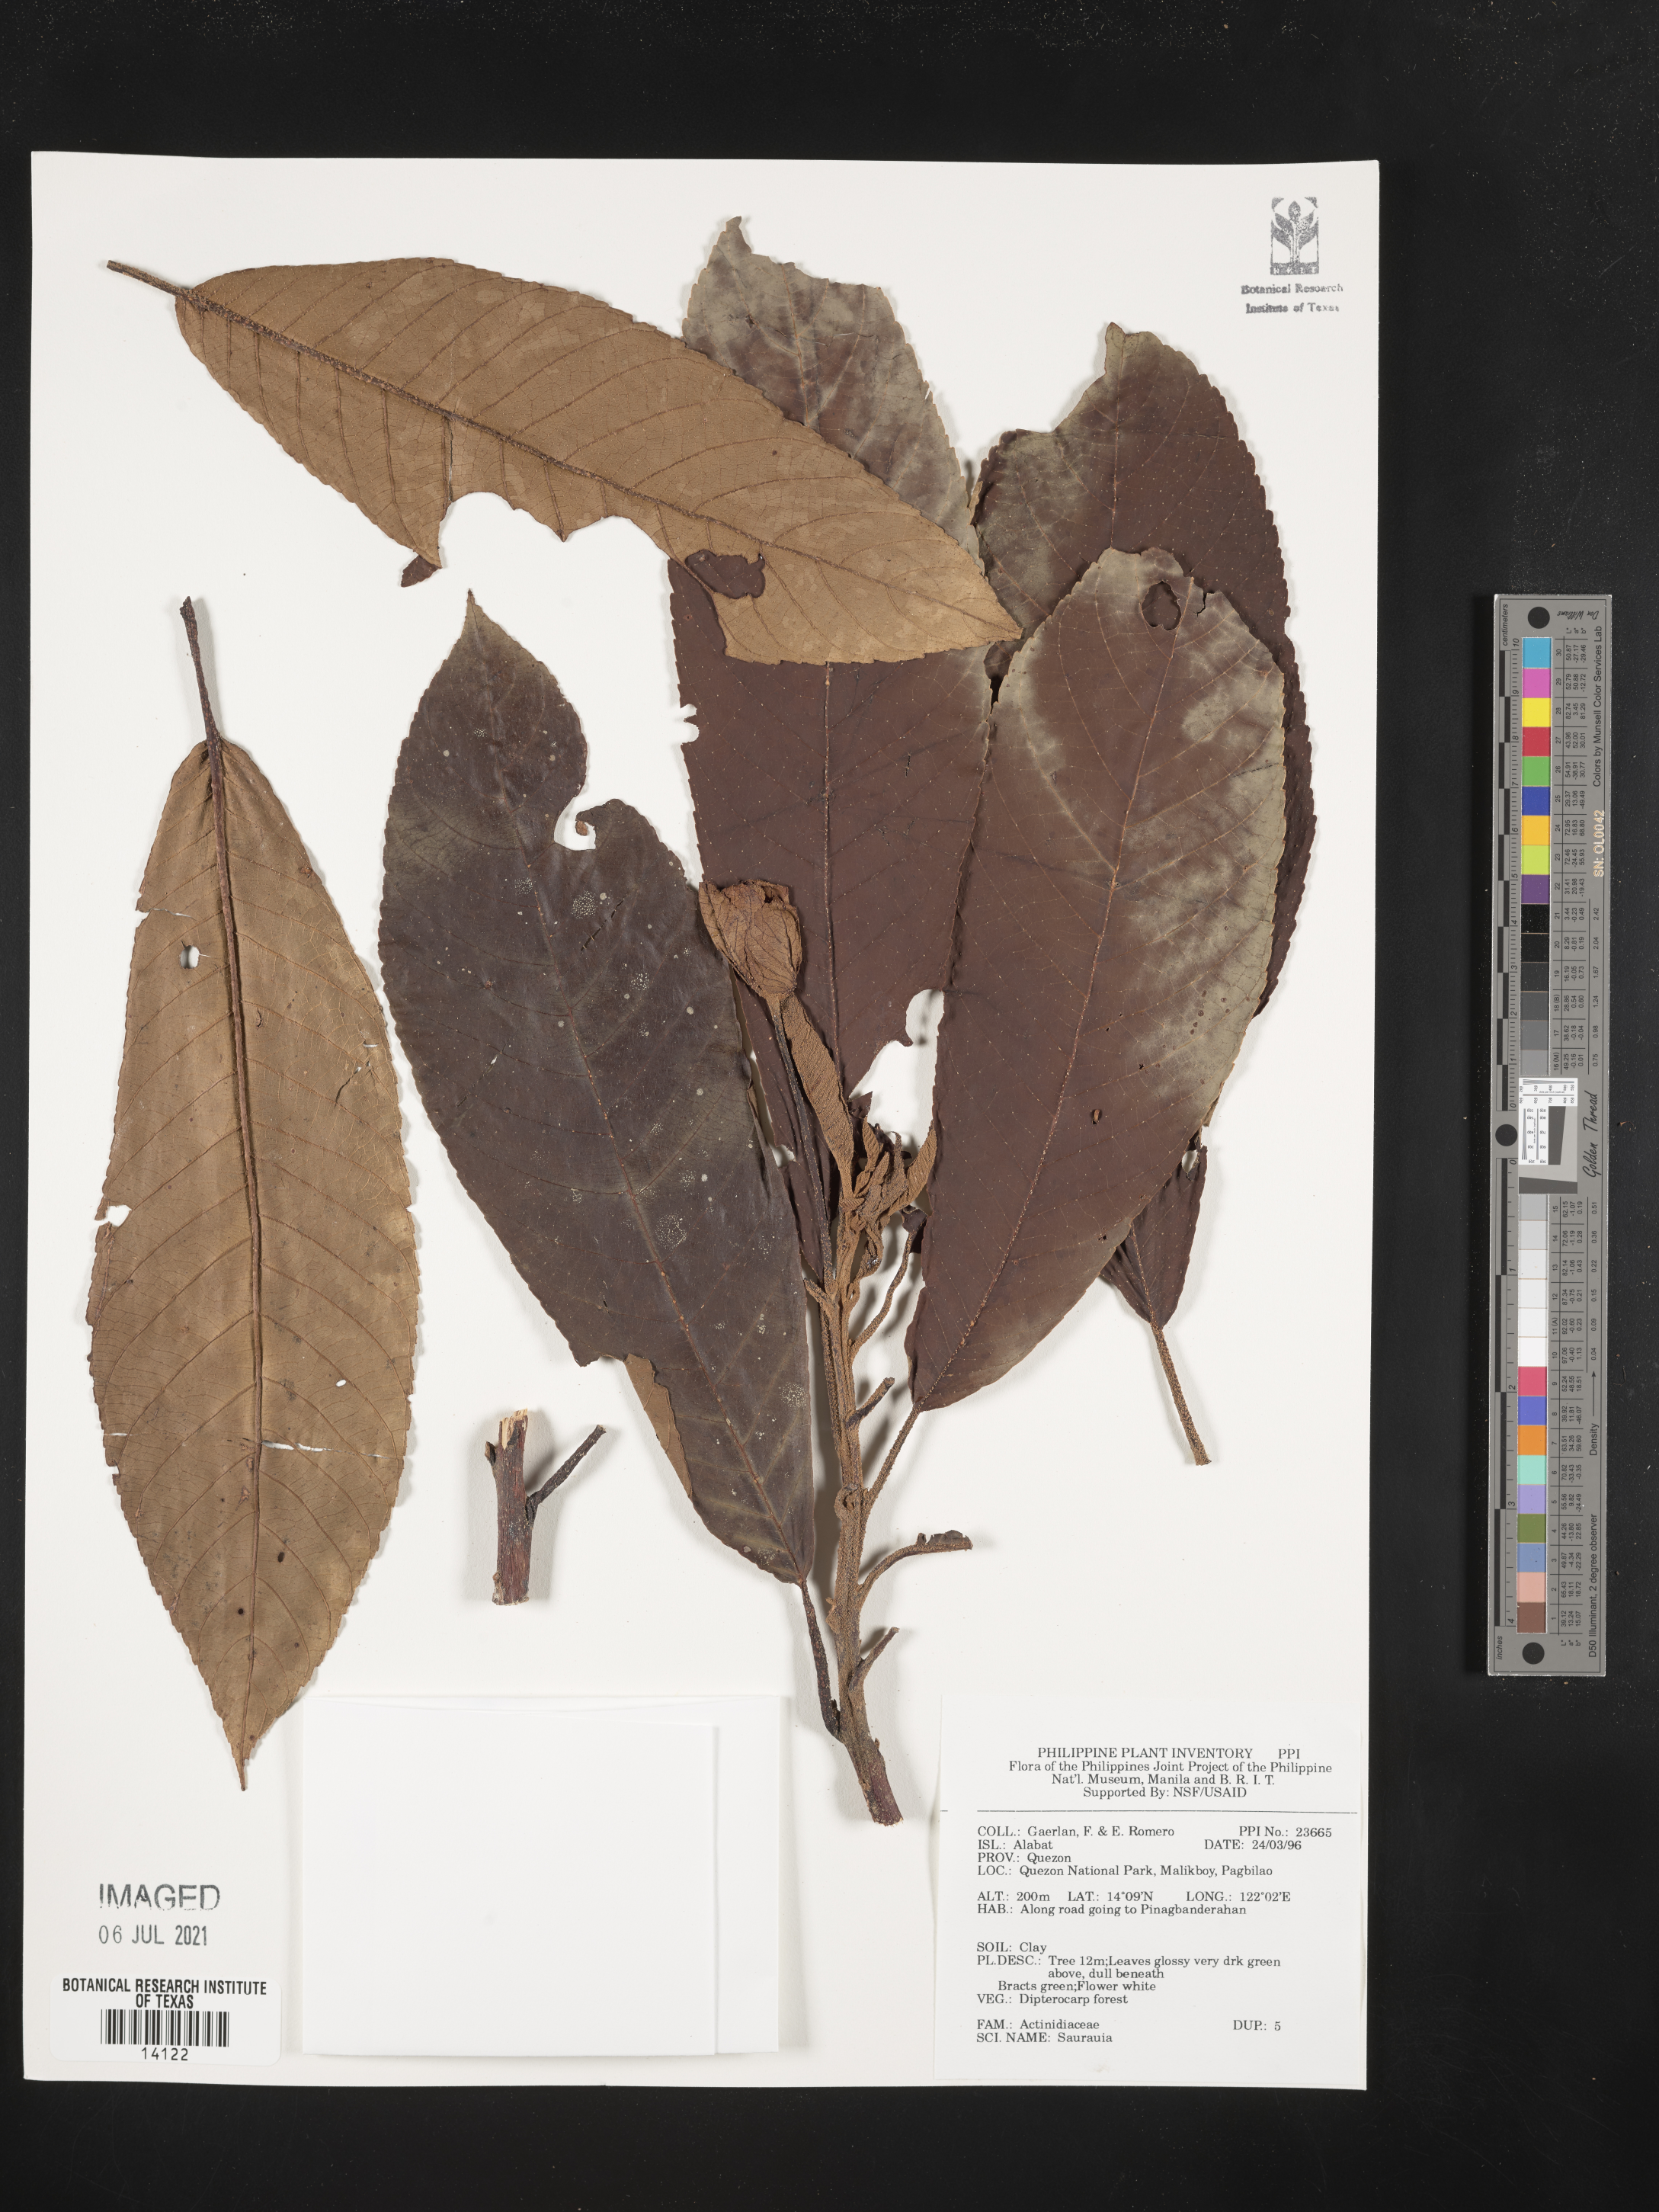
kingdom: Plantae
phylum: Tracheophyta
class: Magnoliopsida
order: Ericales
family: Actinidiaceae
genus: Saurauia
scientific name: Saurauia
